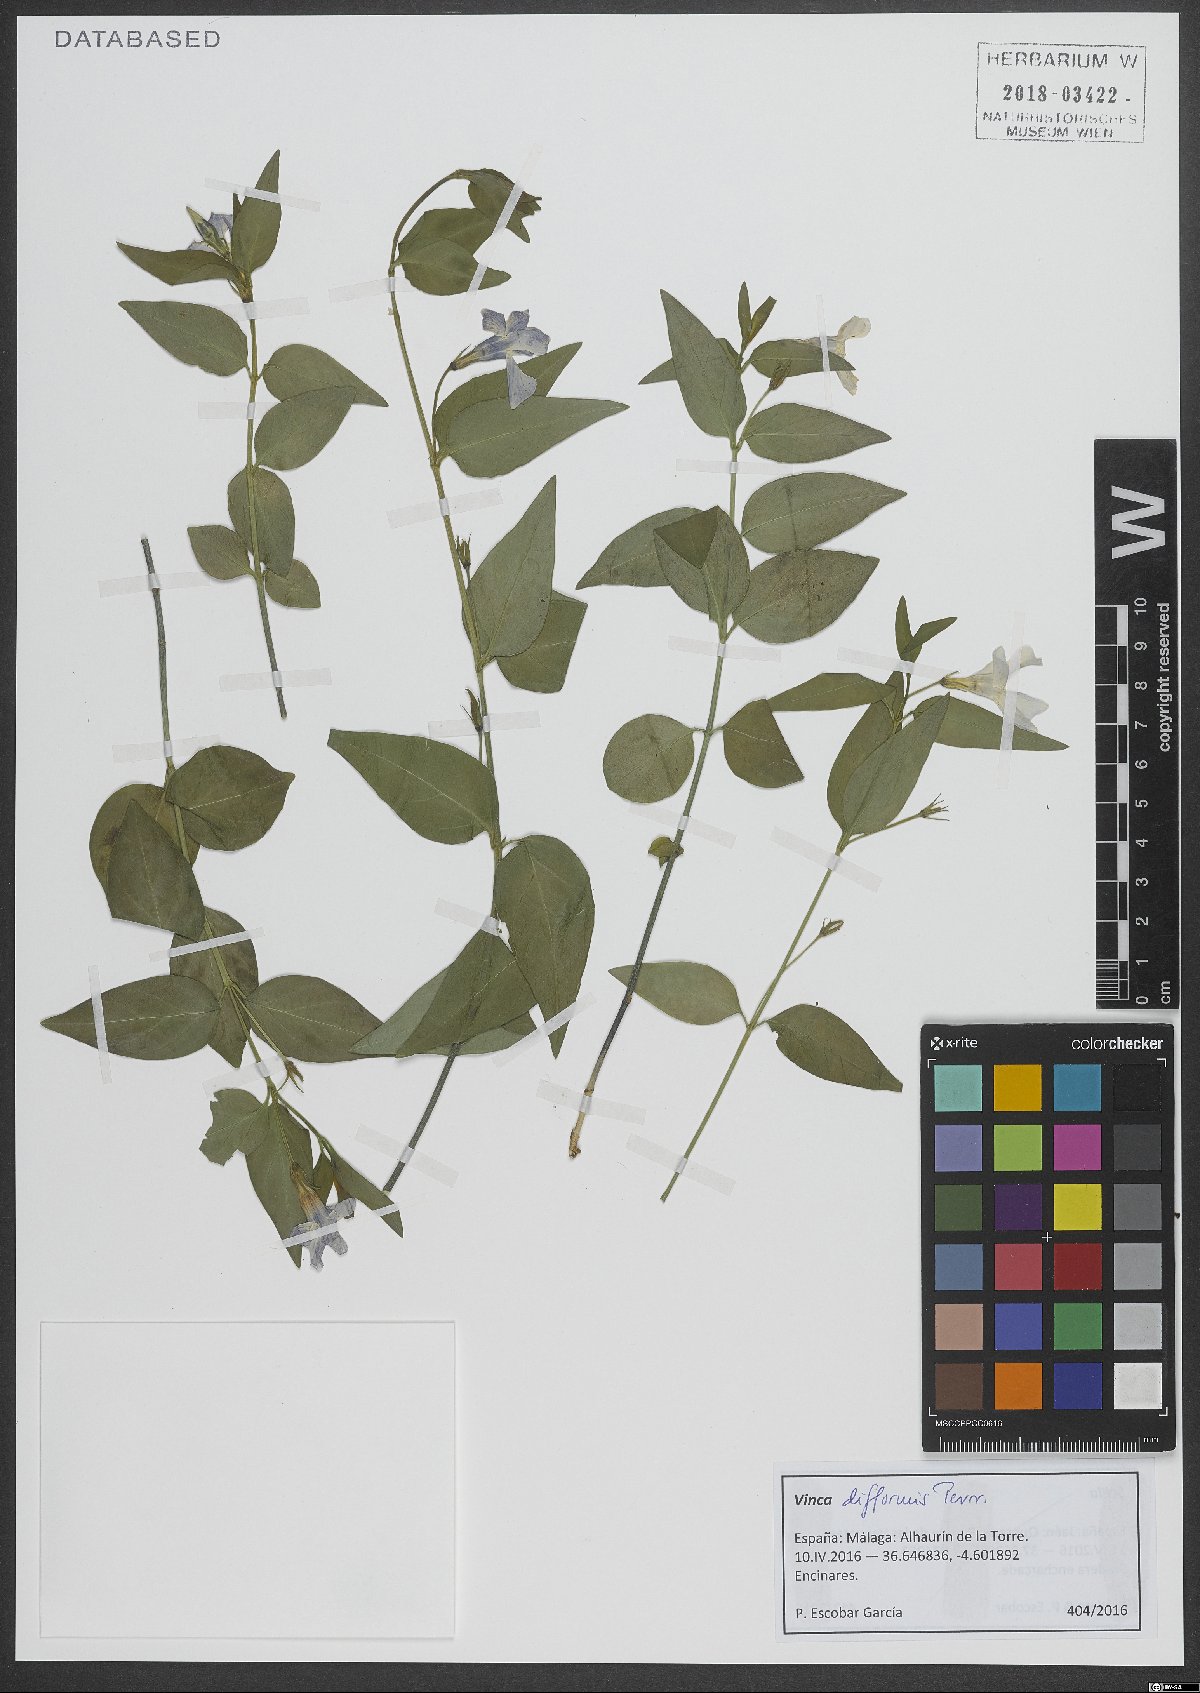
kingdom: Plantae
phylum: Tracheophyta
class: Magnoliopsida
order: Gentianales
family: Apocynaceae
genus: Vinca
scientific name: Vinca difformis
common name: Intermediate periwinkle
